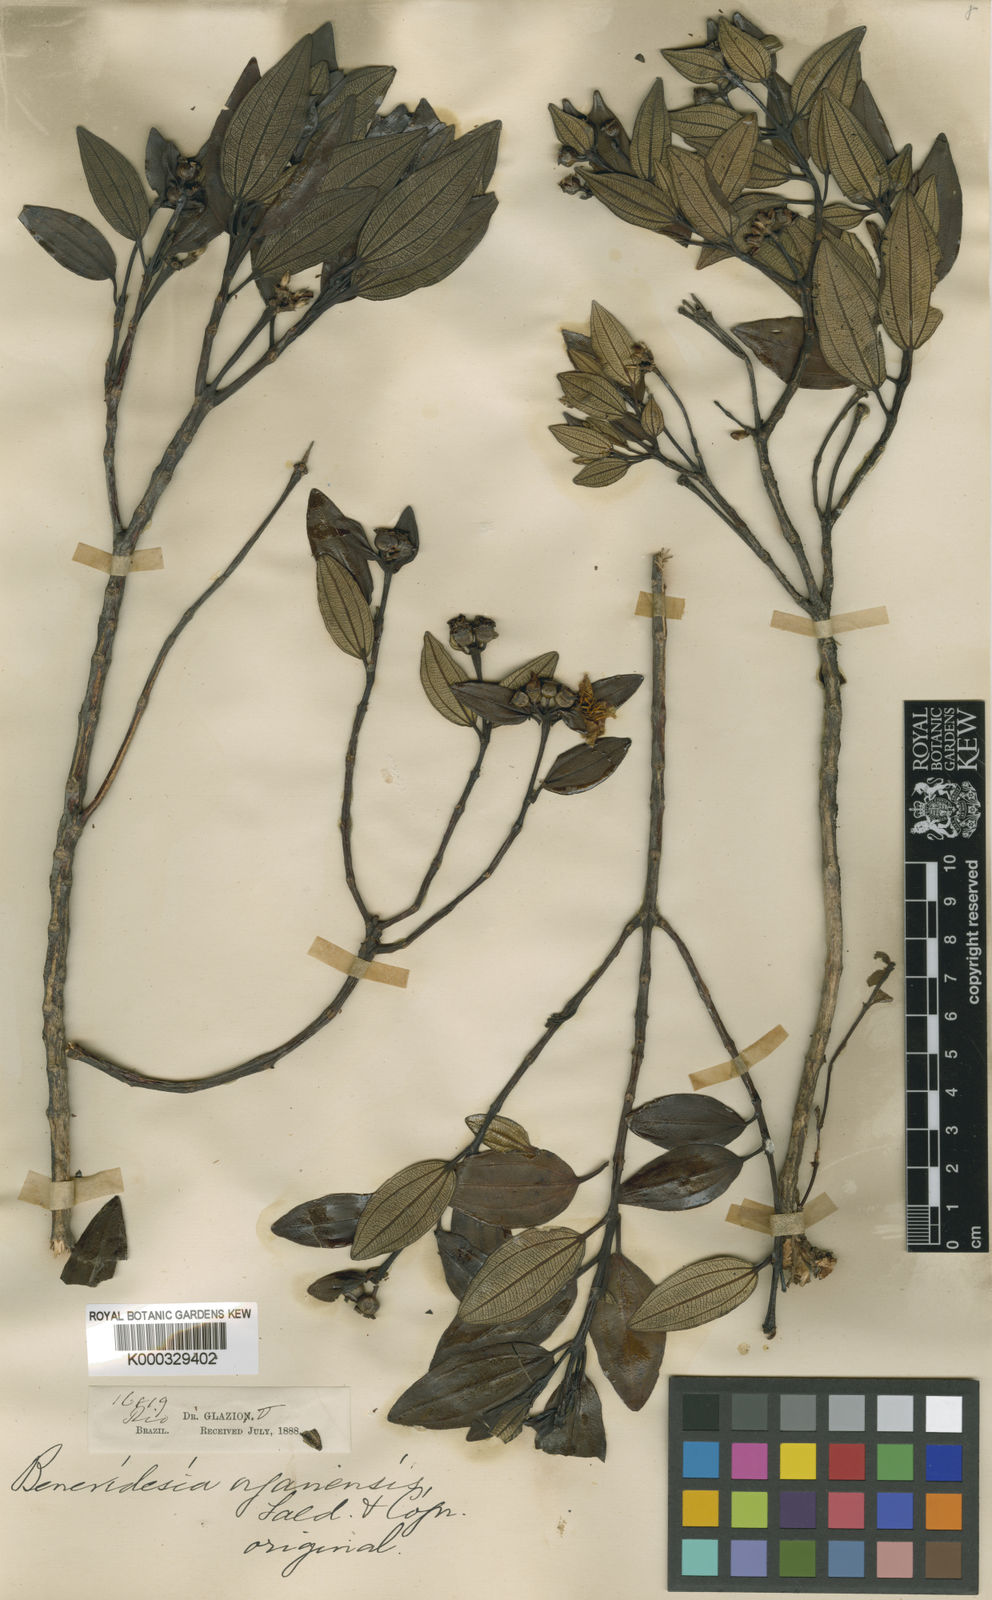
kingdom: Plantae
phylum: Tracheophyta
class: Magnoliopsida
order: Myrtales
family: Melastomataceae
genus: Huberia
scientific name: Huberia organensis
